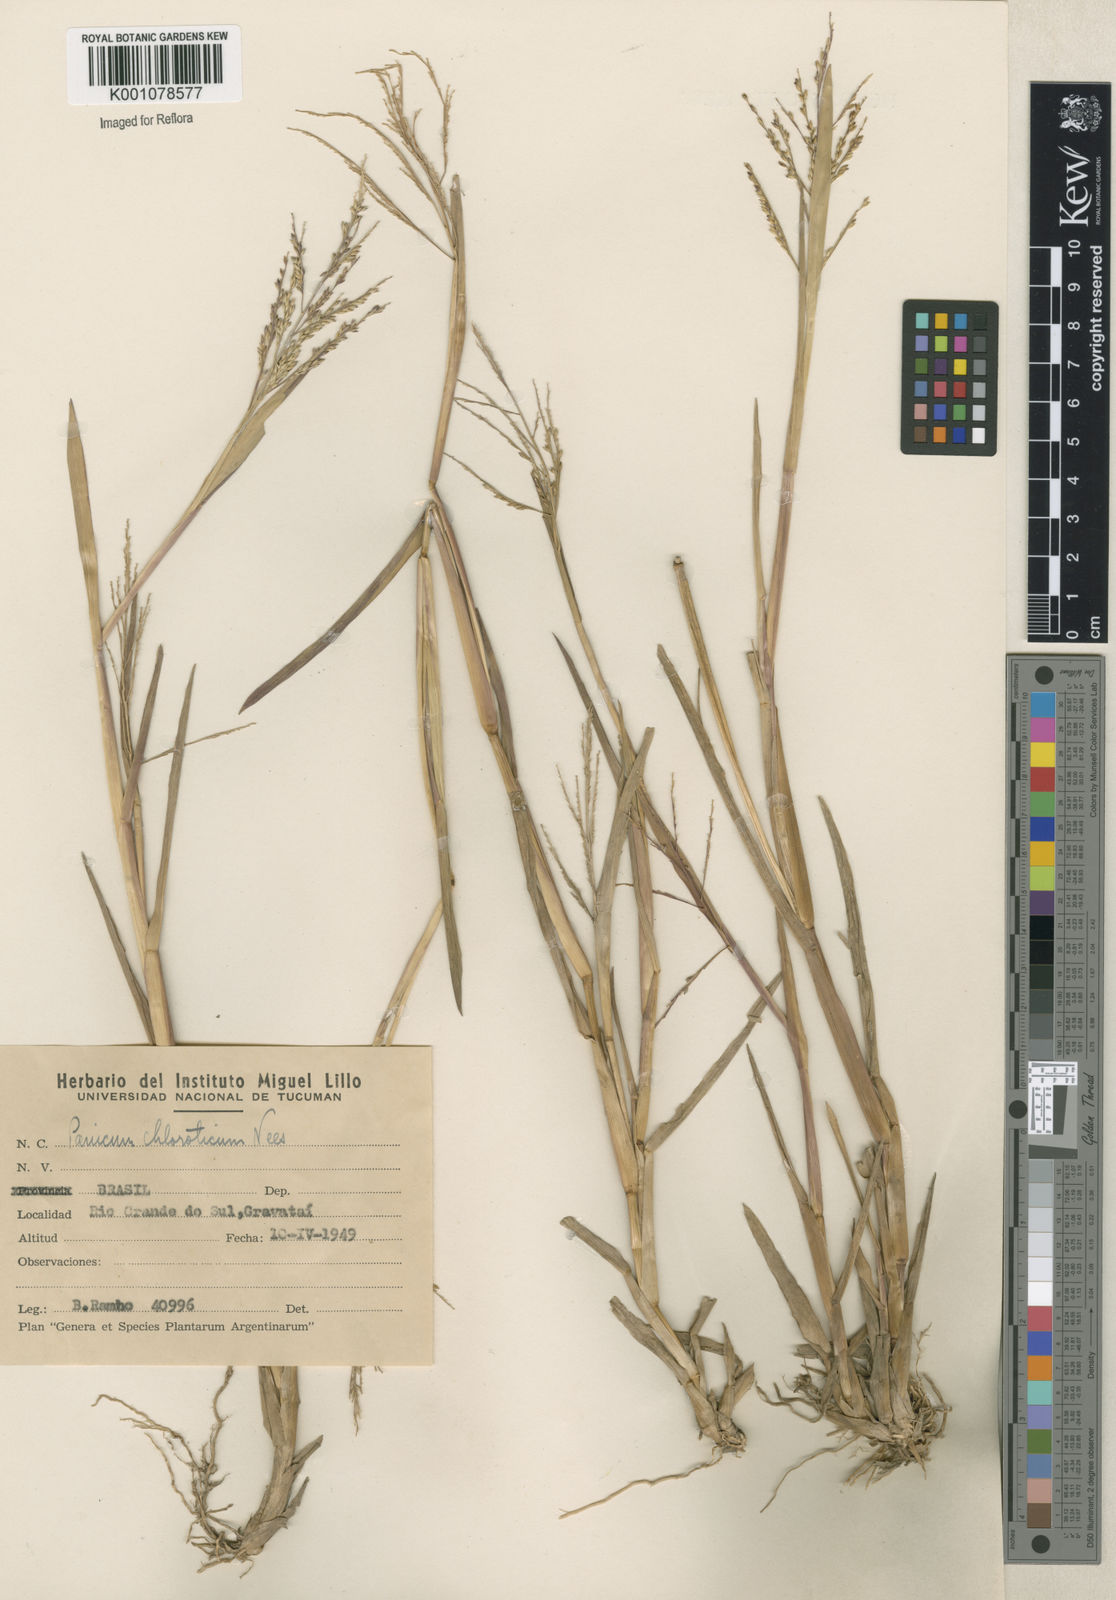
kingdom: Plantae
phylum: Tracheophyta
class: Liliopsida
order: Poales
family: Poaceae
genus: Panicum
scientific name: Panicum dichotomiflorum
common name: Autumn millet
